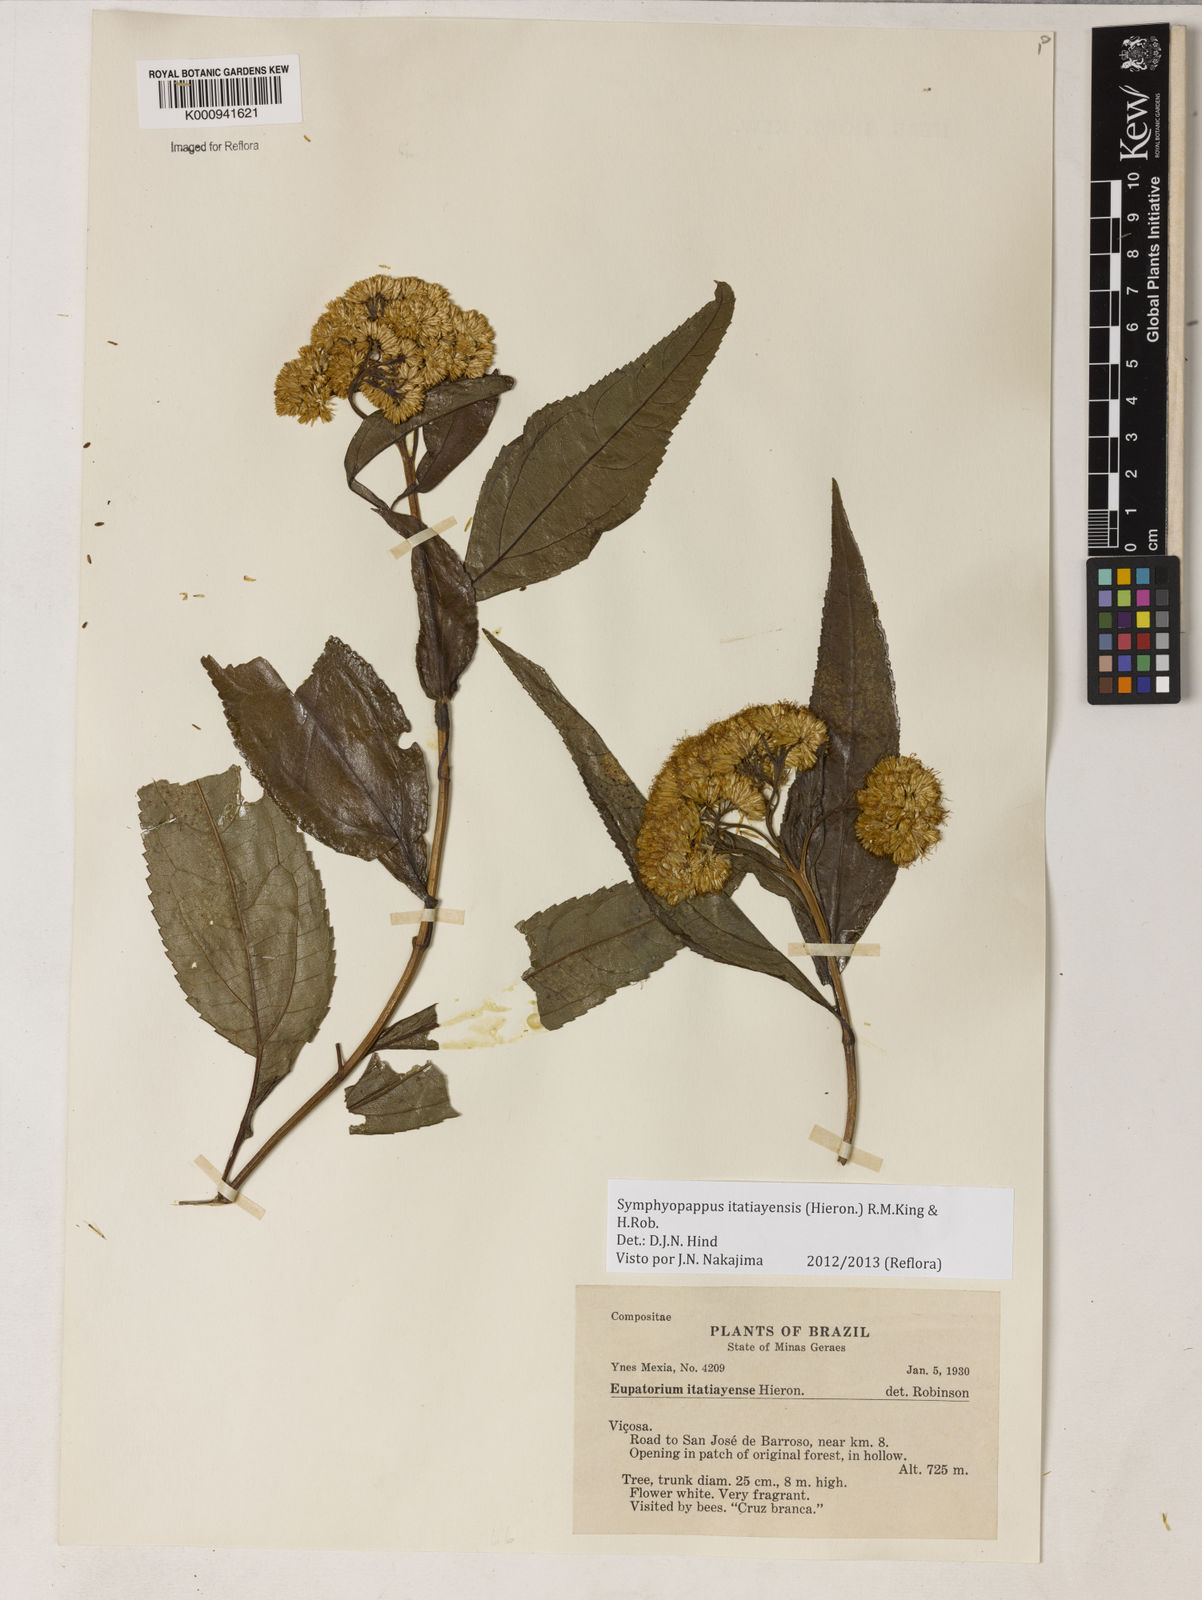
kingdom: Plantae
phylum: Tracheophyta
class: Magnoliopsida
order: Asterales
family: Asteraceae
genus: Symphyopappus
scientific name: Symphyopappus itatiayensis
